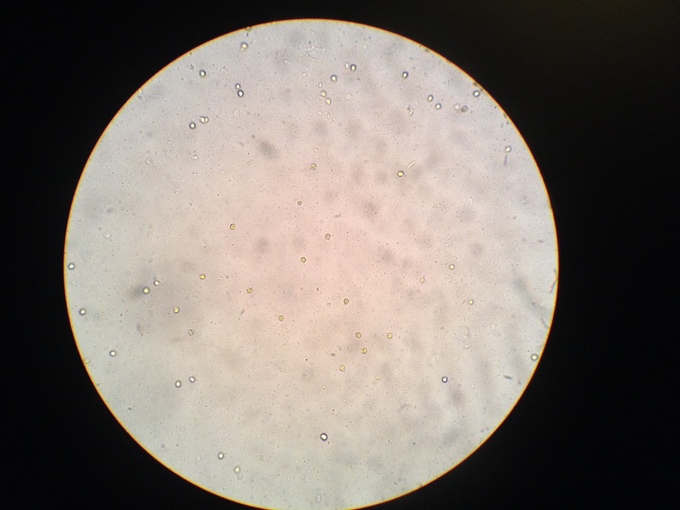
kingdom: Fungi
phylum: Basidiomycota
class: Agaricomycetes
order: Agaricales
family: Clavariaceae
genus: Clavulinopsis
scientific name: Clavulinopsis fusiformis
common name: tenformet køllesvamp
